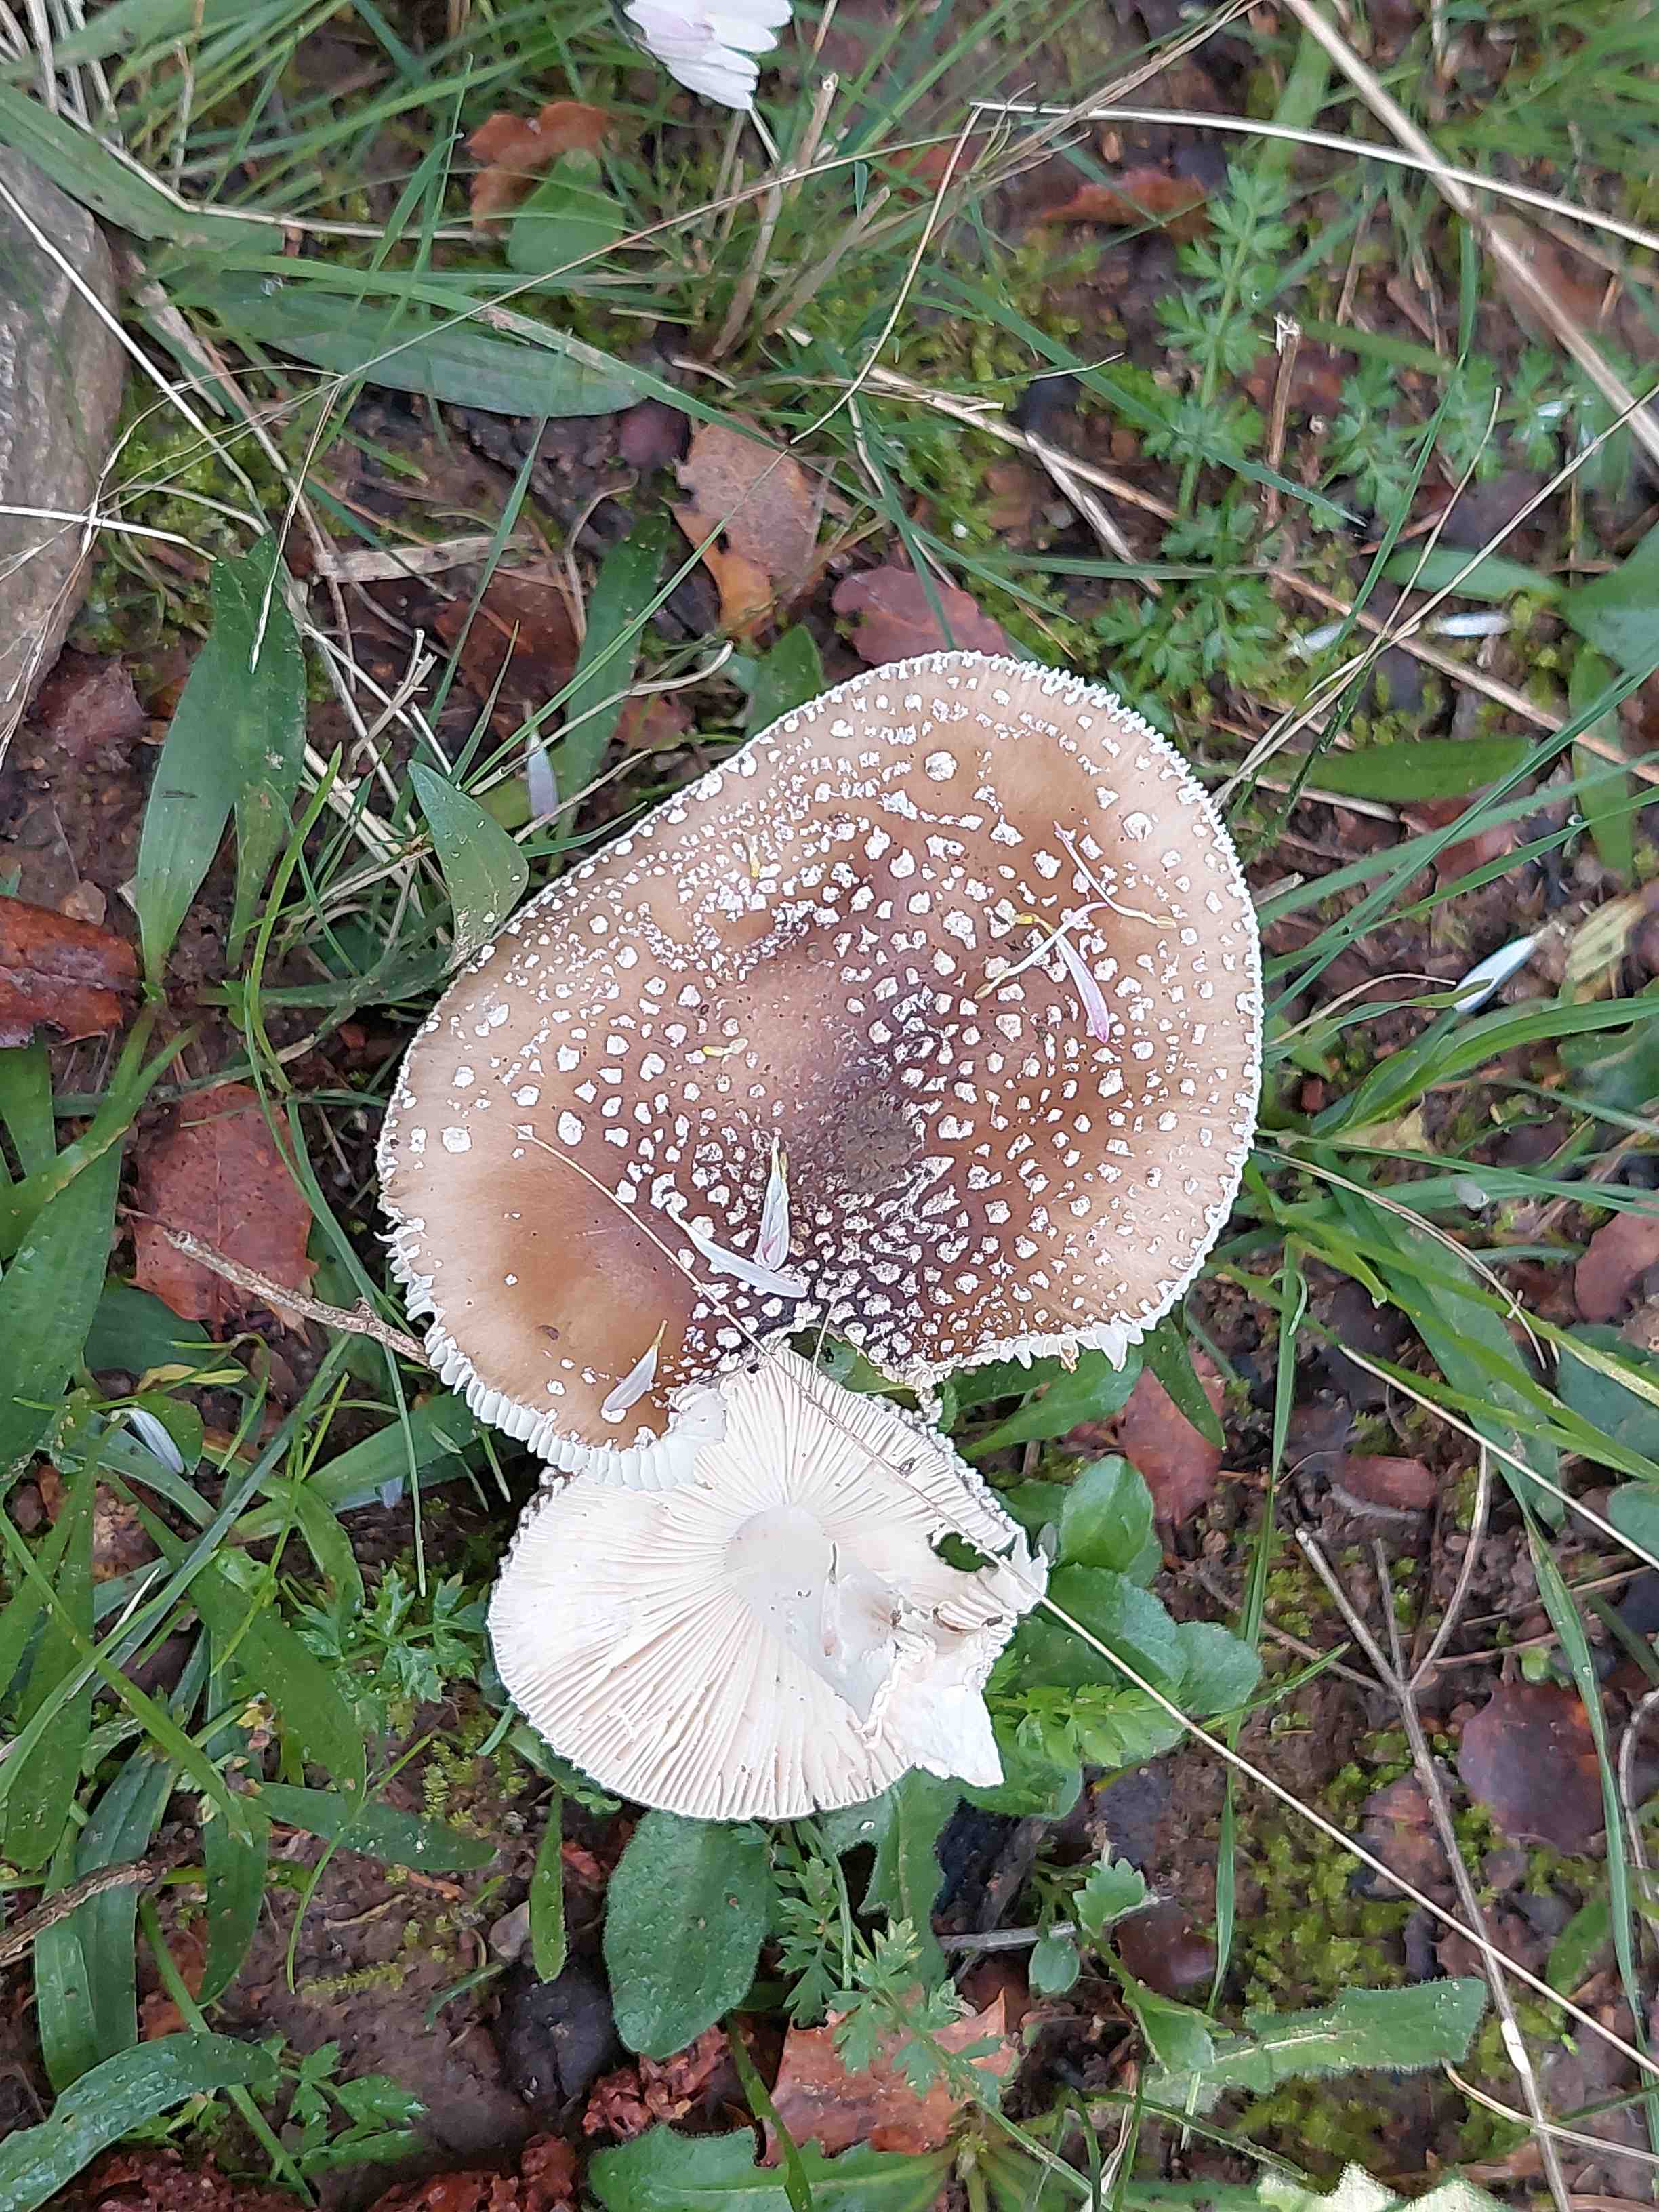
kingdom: Fungi
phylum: Basidiomycota
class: Agaricomycetes
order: Agaricales
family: Amanitaceae
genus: Amanita
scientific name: Amanita pantherina
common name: panter-fluesvamp
